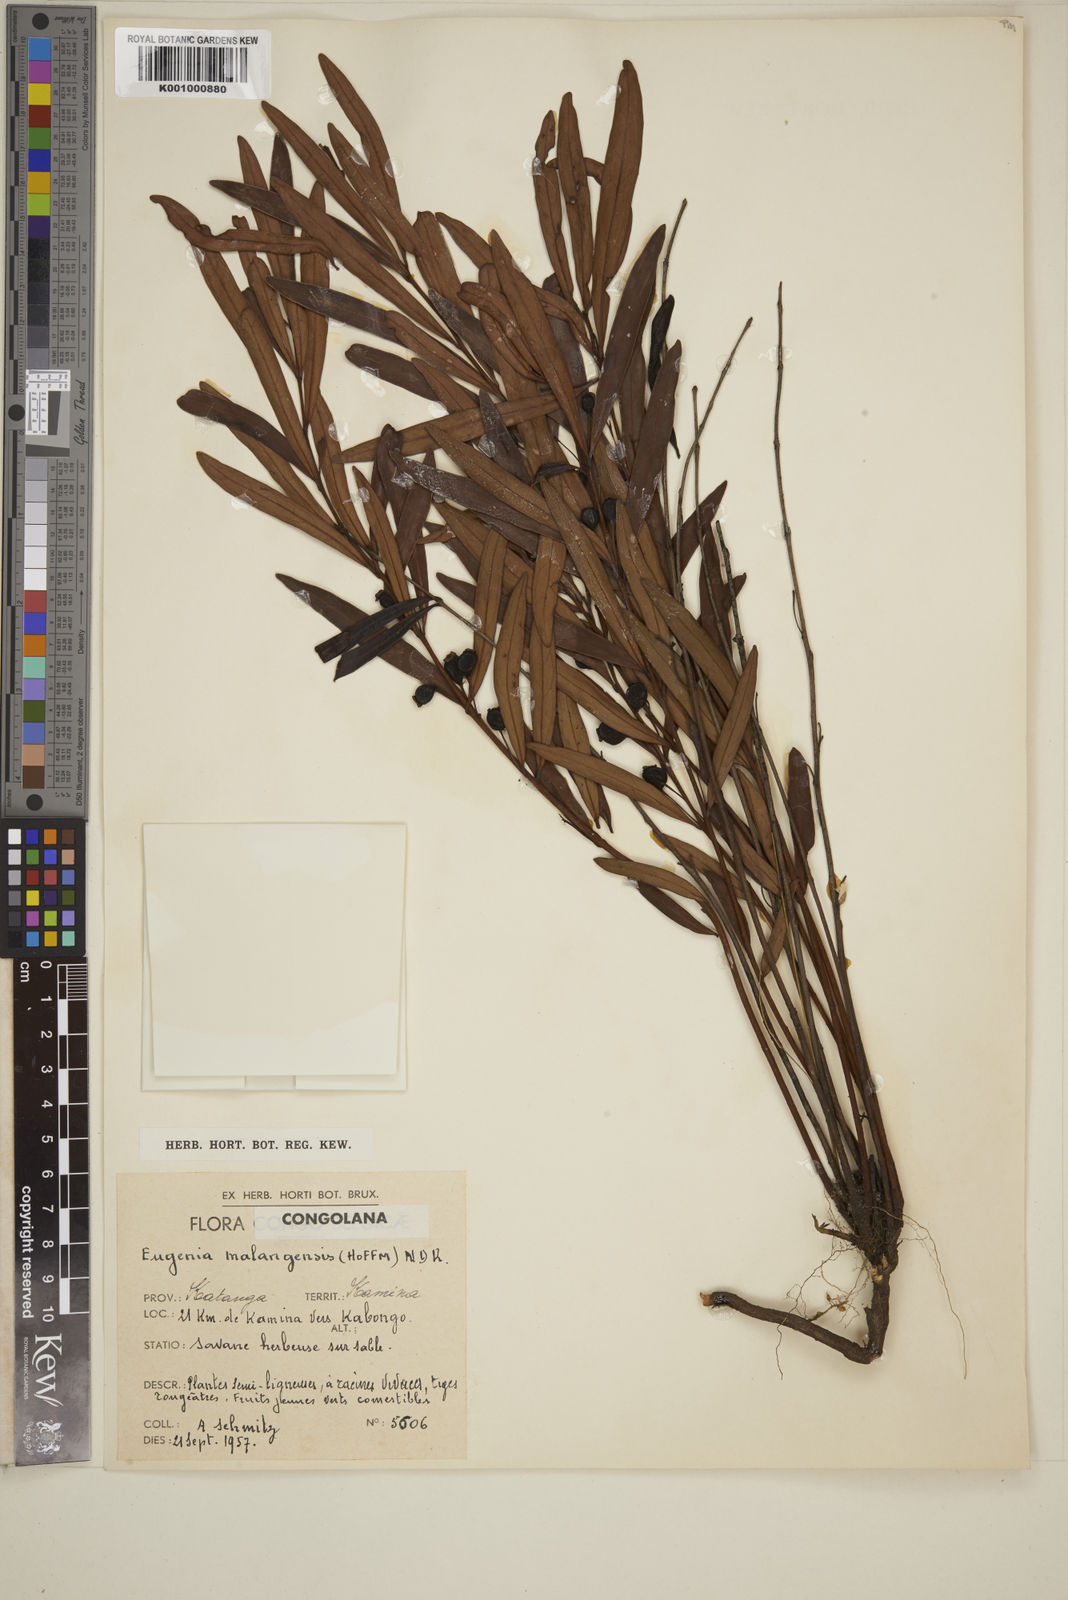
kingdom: Plantae
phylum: Tracheophyta
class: Magnoliopsida
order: Myrtales
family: Myrtaceae
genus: Eugenia
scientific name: Eugenia malangensis
